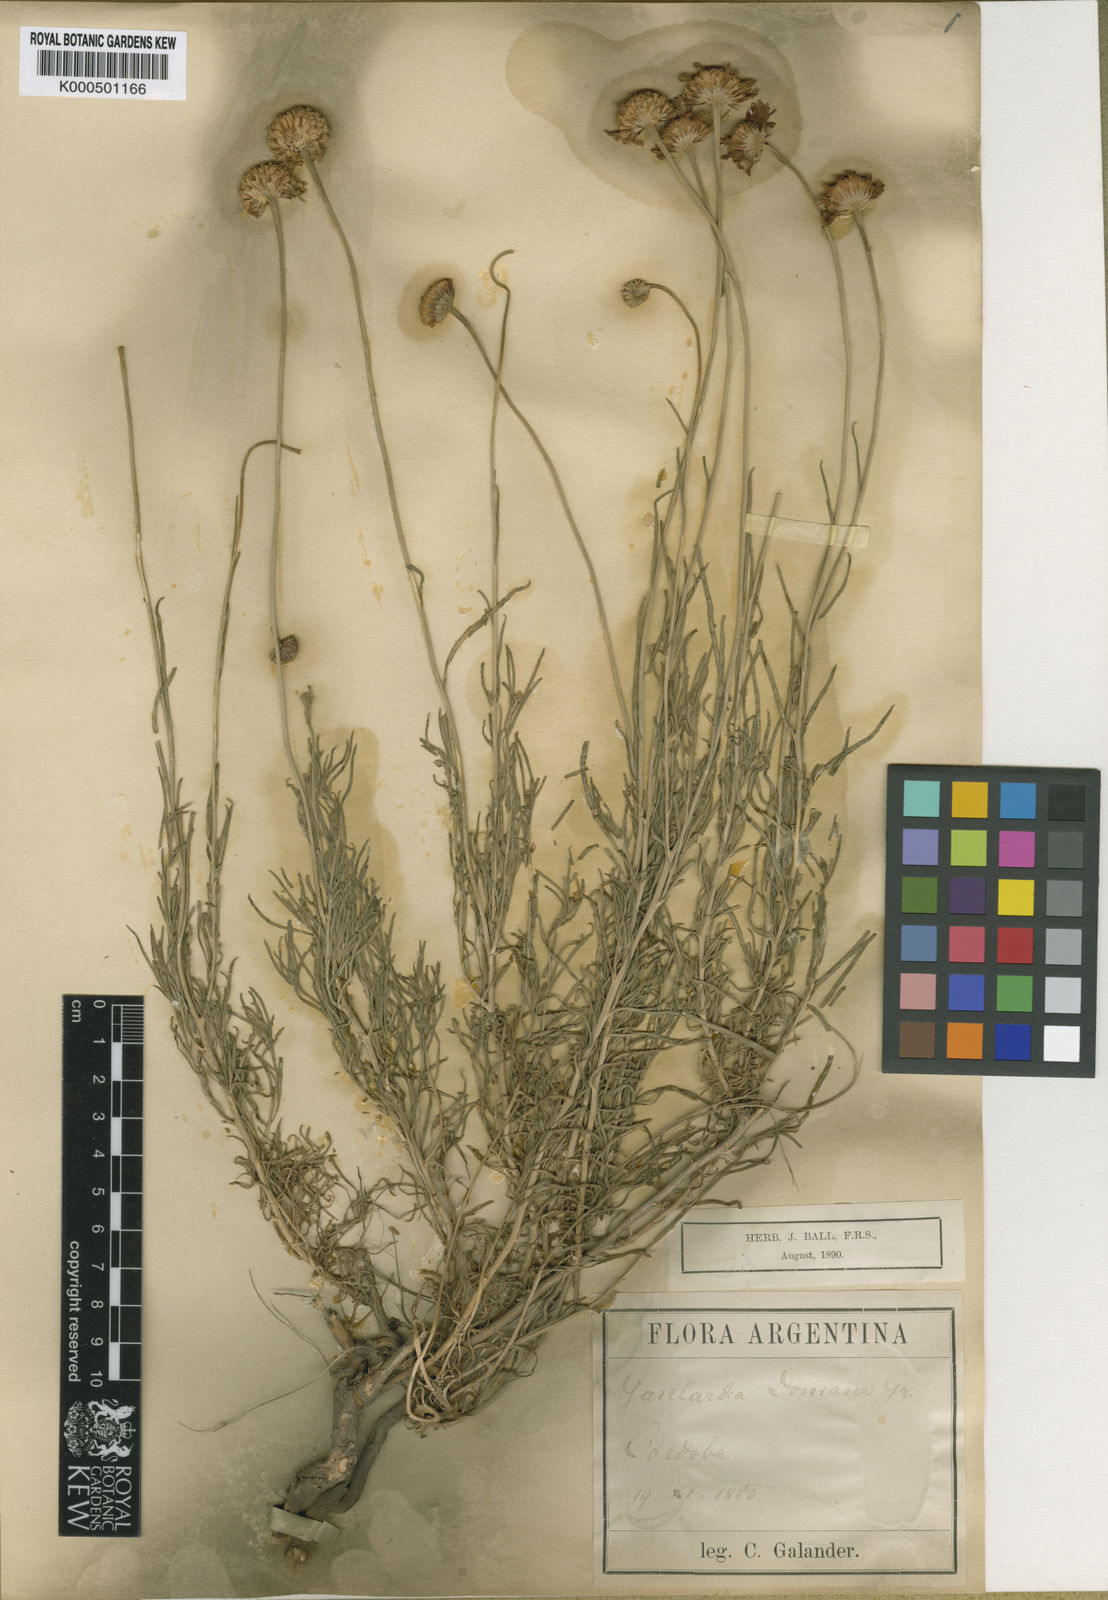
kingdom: Plantae
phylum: Tracheophyta
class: Magnoliopsida
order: Asterales
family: Asteraceae
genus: Gaillardia
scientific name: Gaillardia
